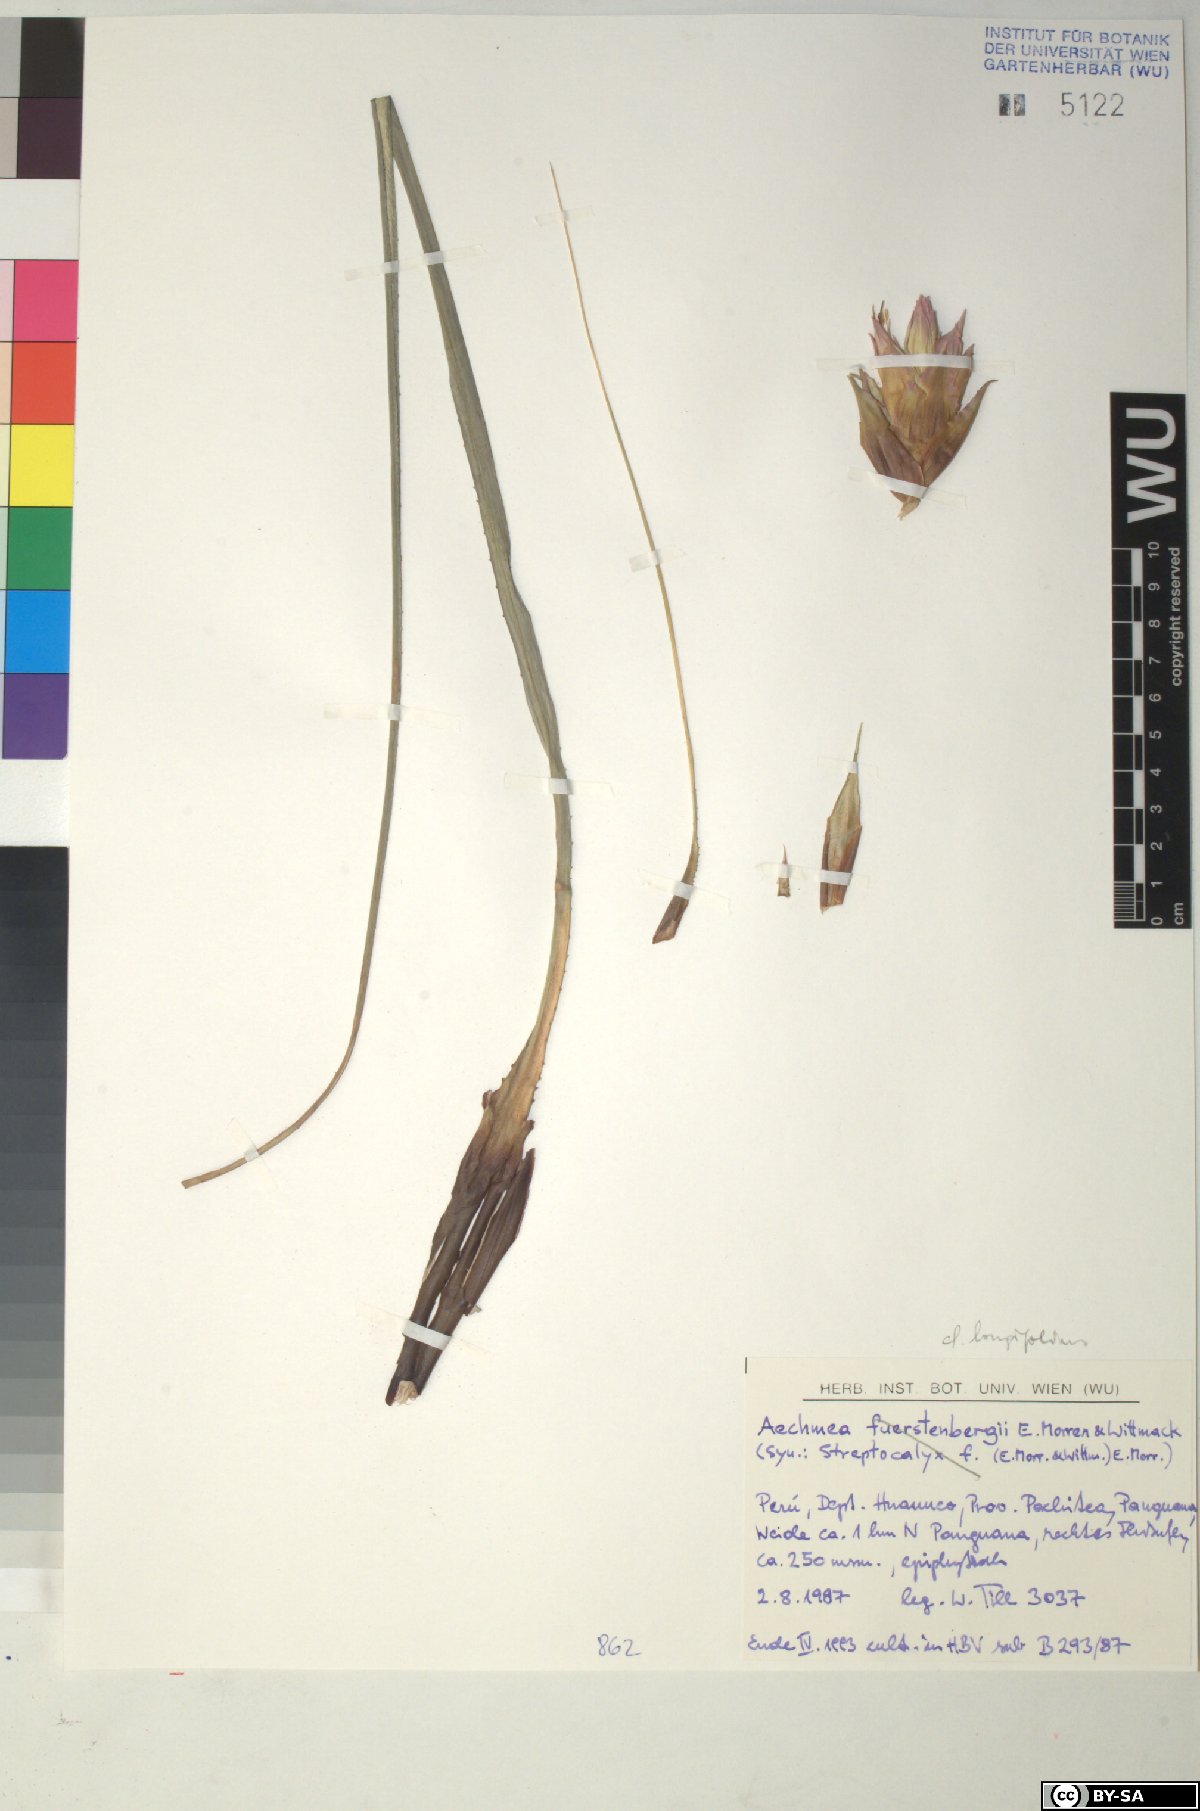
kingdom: Plantae
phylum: Tracheophyta
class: Liliopsida
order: Poales
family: Bromeliaceae
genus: Aechmea
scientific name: Aechmea
